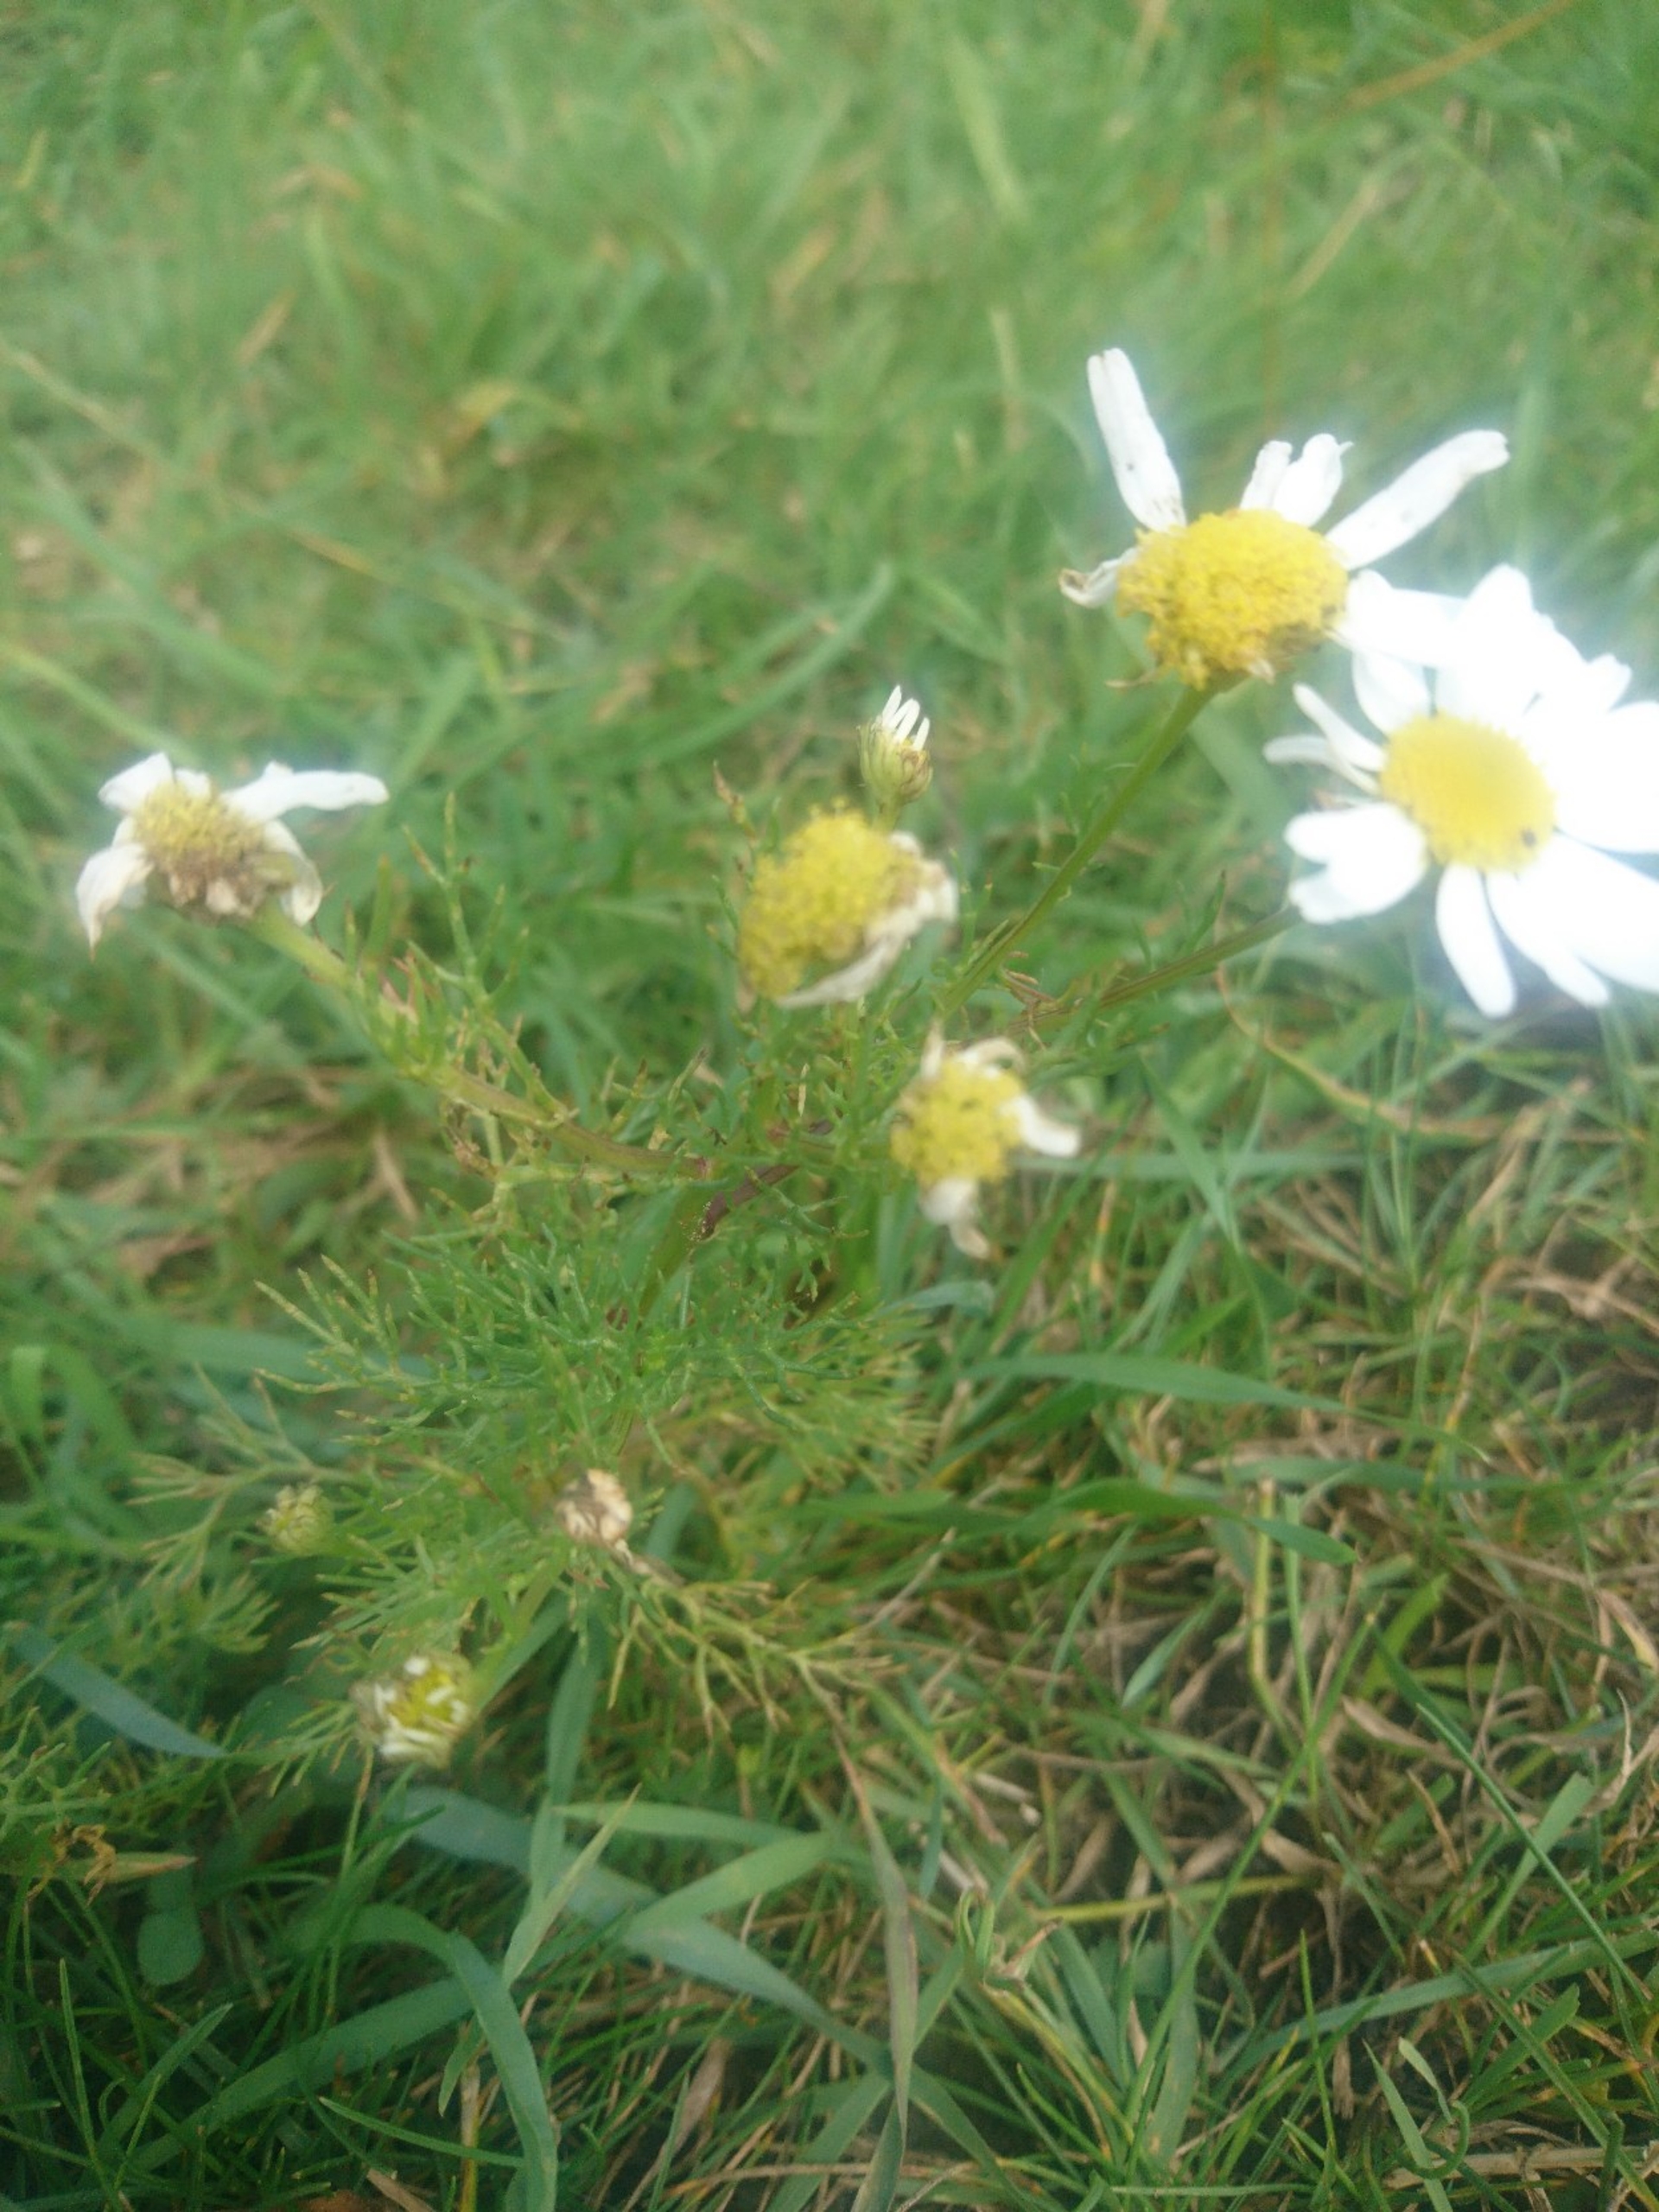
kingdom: Plantae
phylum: Tracheophyta
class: Magnoliopsida
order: Asterales
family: Asteraceae
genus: Tripleurospermum
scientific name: Tripleurospermum inodorum
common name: Lugtløs kamille
